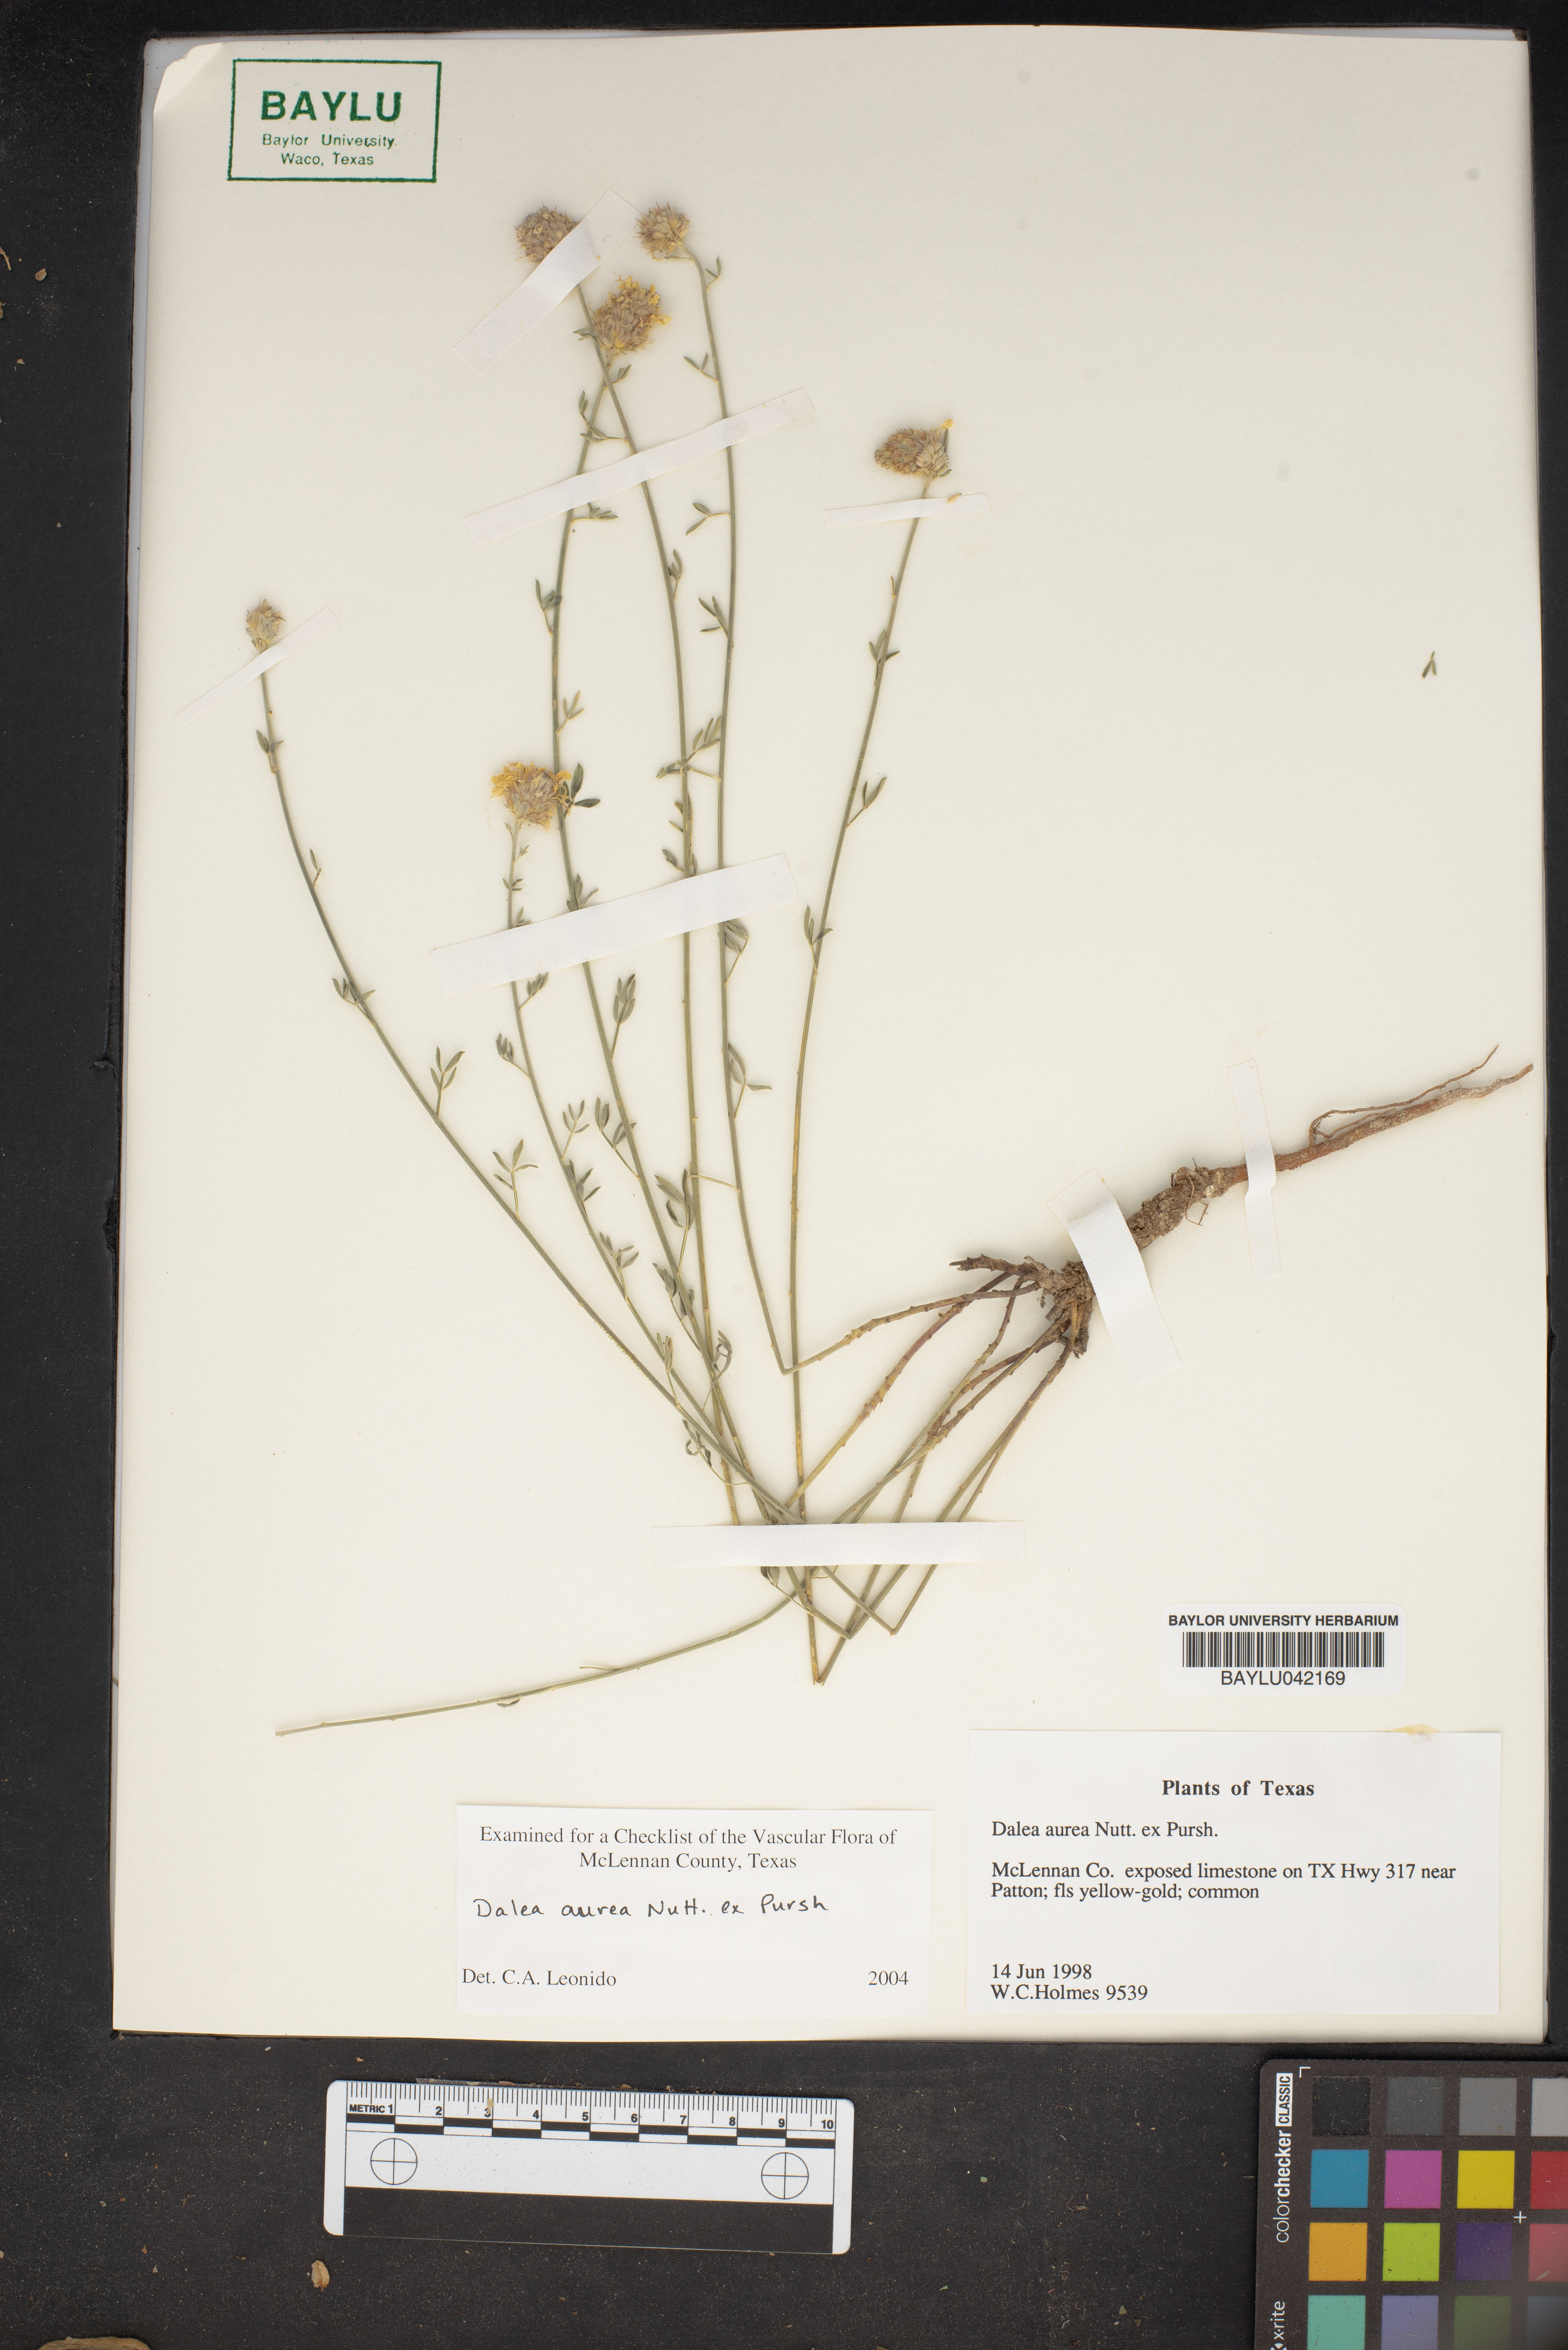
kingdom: Plantae
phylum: Tracheophyta
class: Magnoliopsida
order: Fabales
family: Fabaceae
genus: Dalea
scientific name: Dalea aurea
